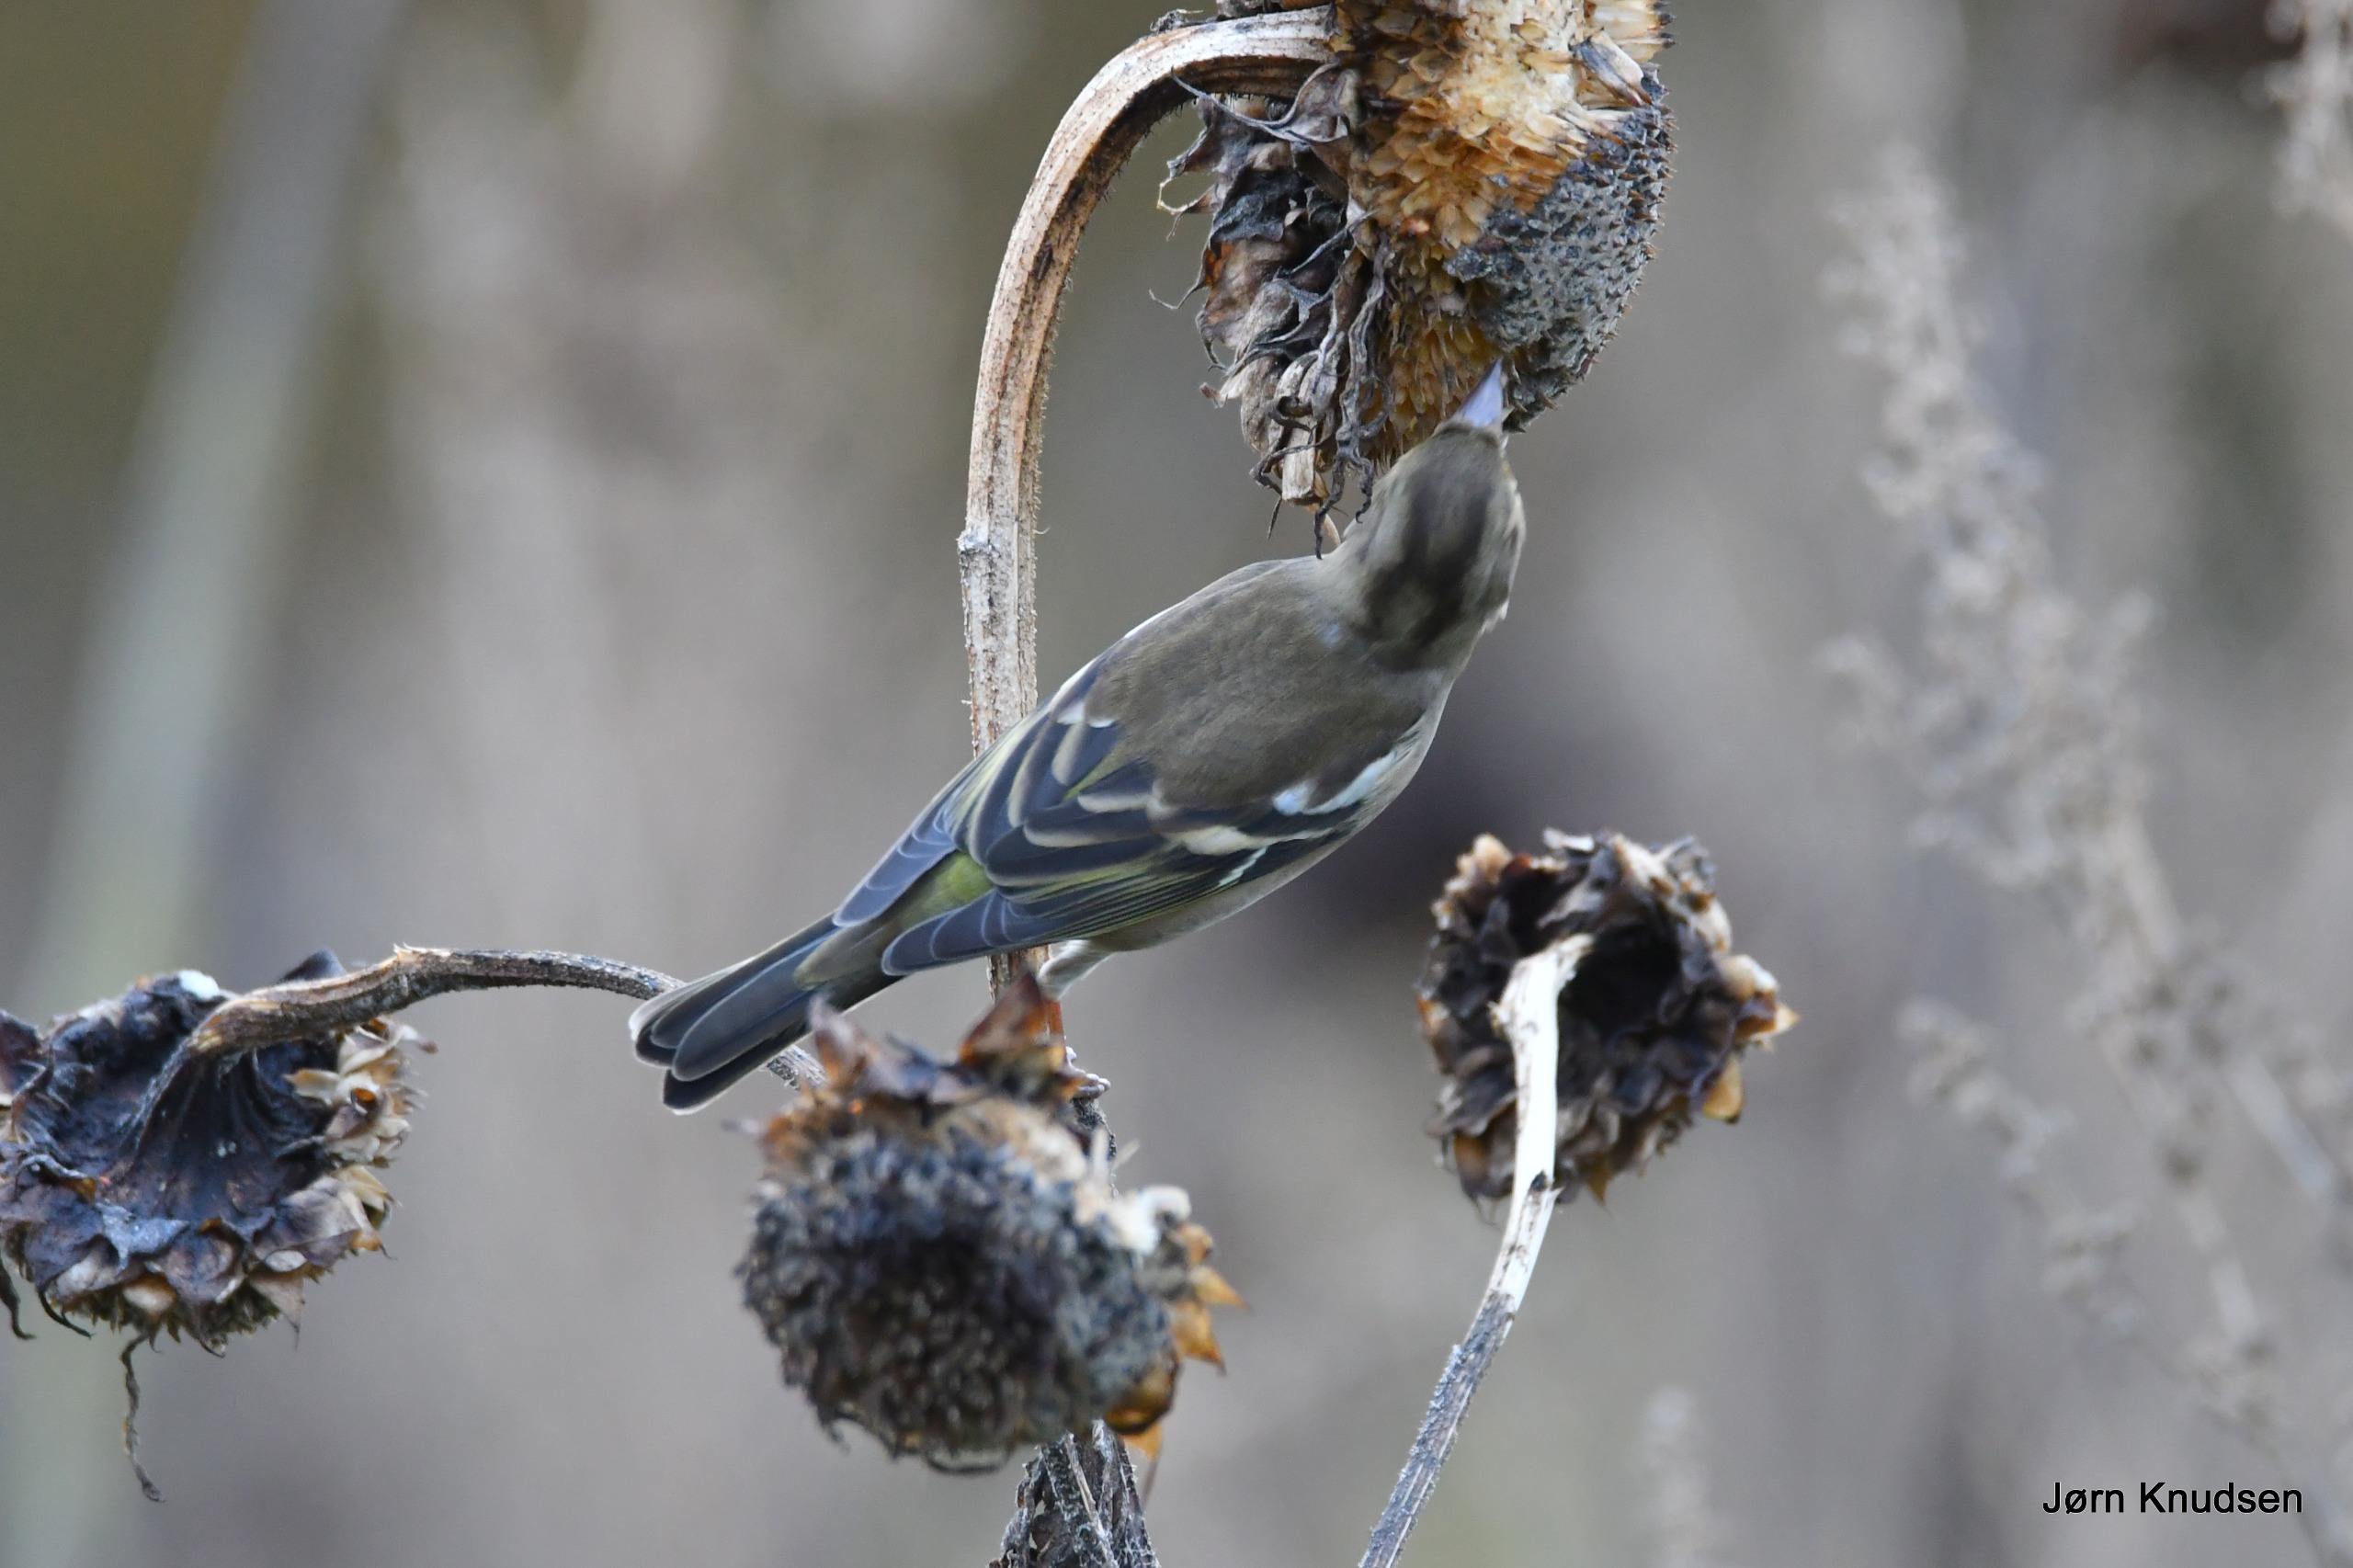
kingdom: Animalia
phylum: Chordata
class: Aves
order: Passeriformes
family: Fringillidae
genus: Fringilla
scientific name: Fringilla coelebs
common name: Bogfinke
